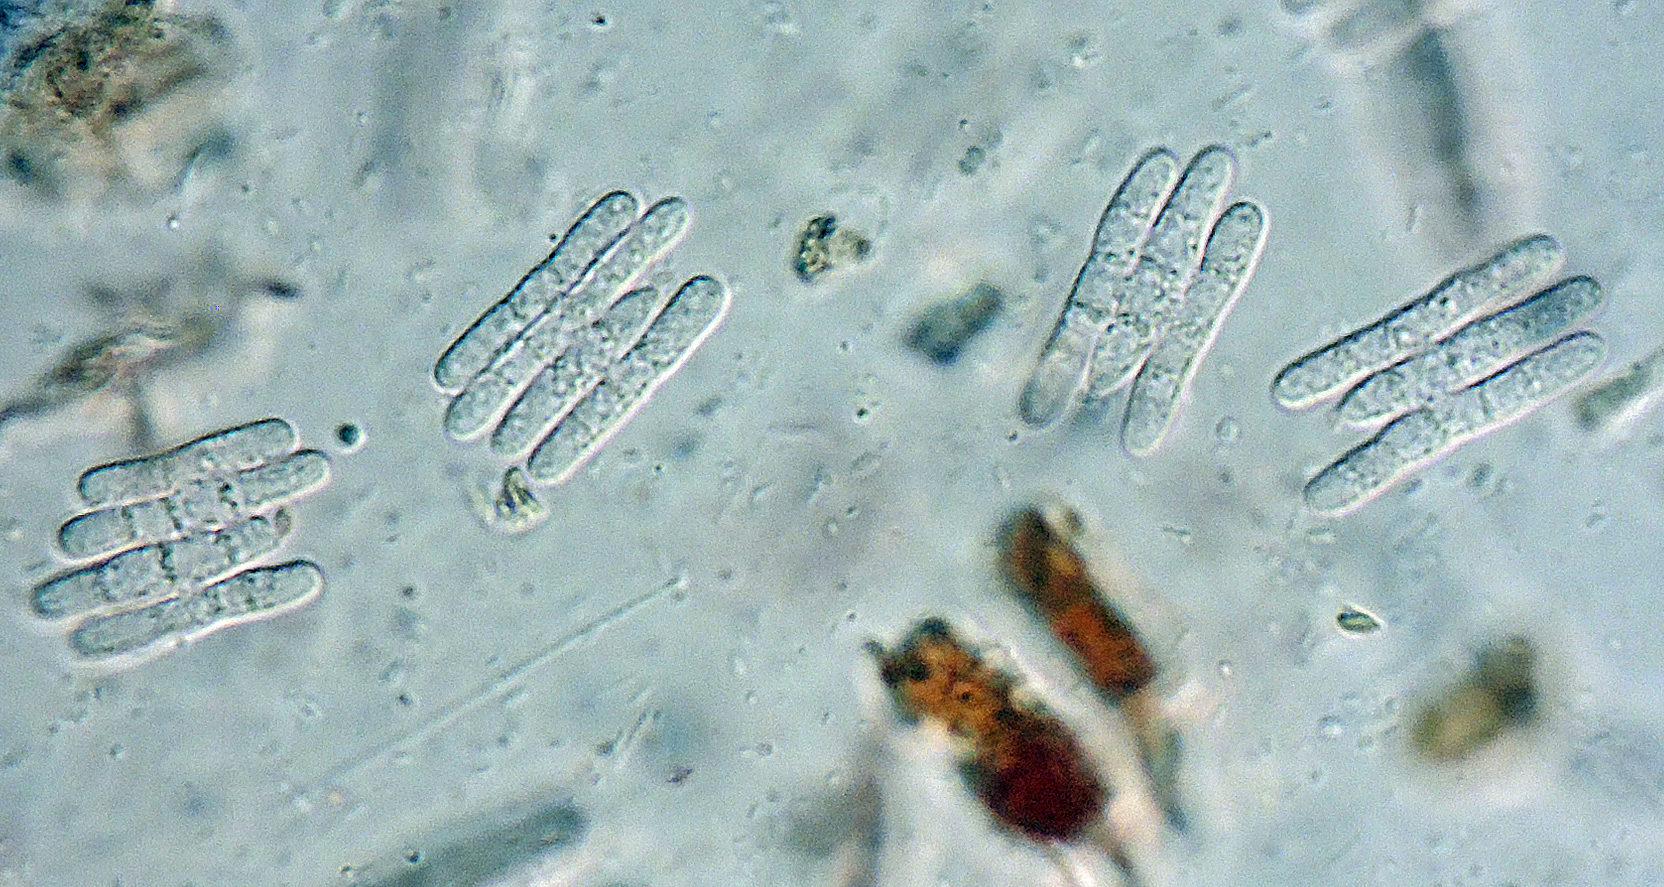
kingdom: Fungi
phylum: Ascomycota
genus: Amallospora
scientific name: Amallospora dacrydion
